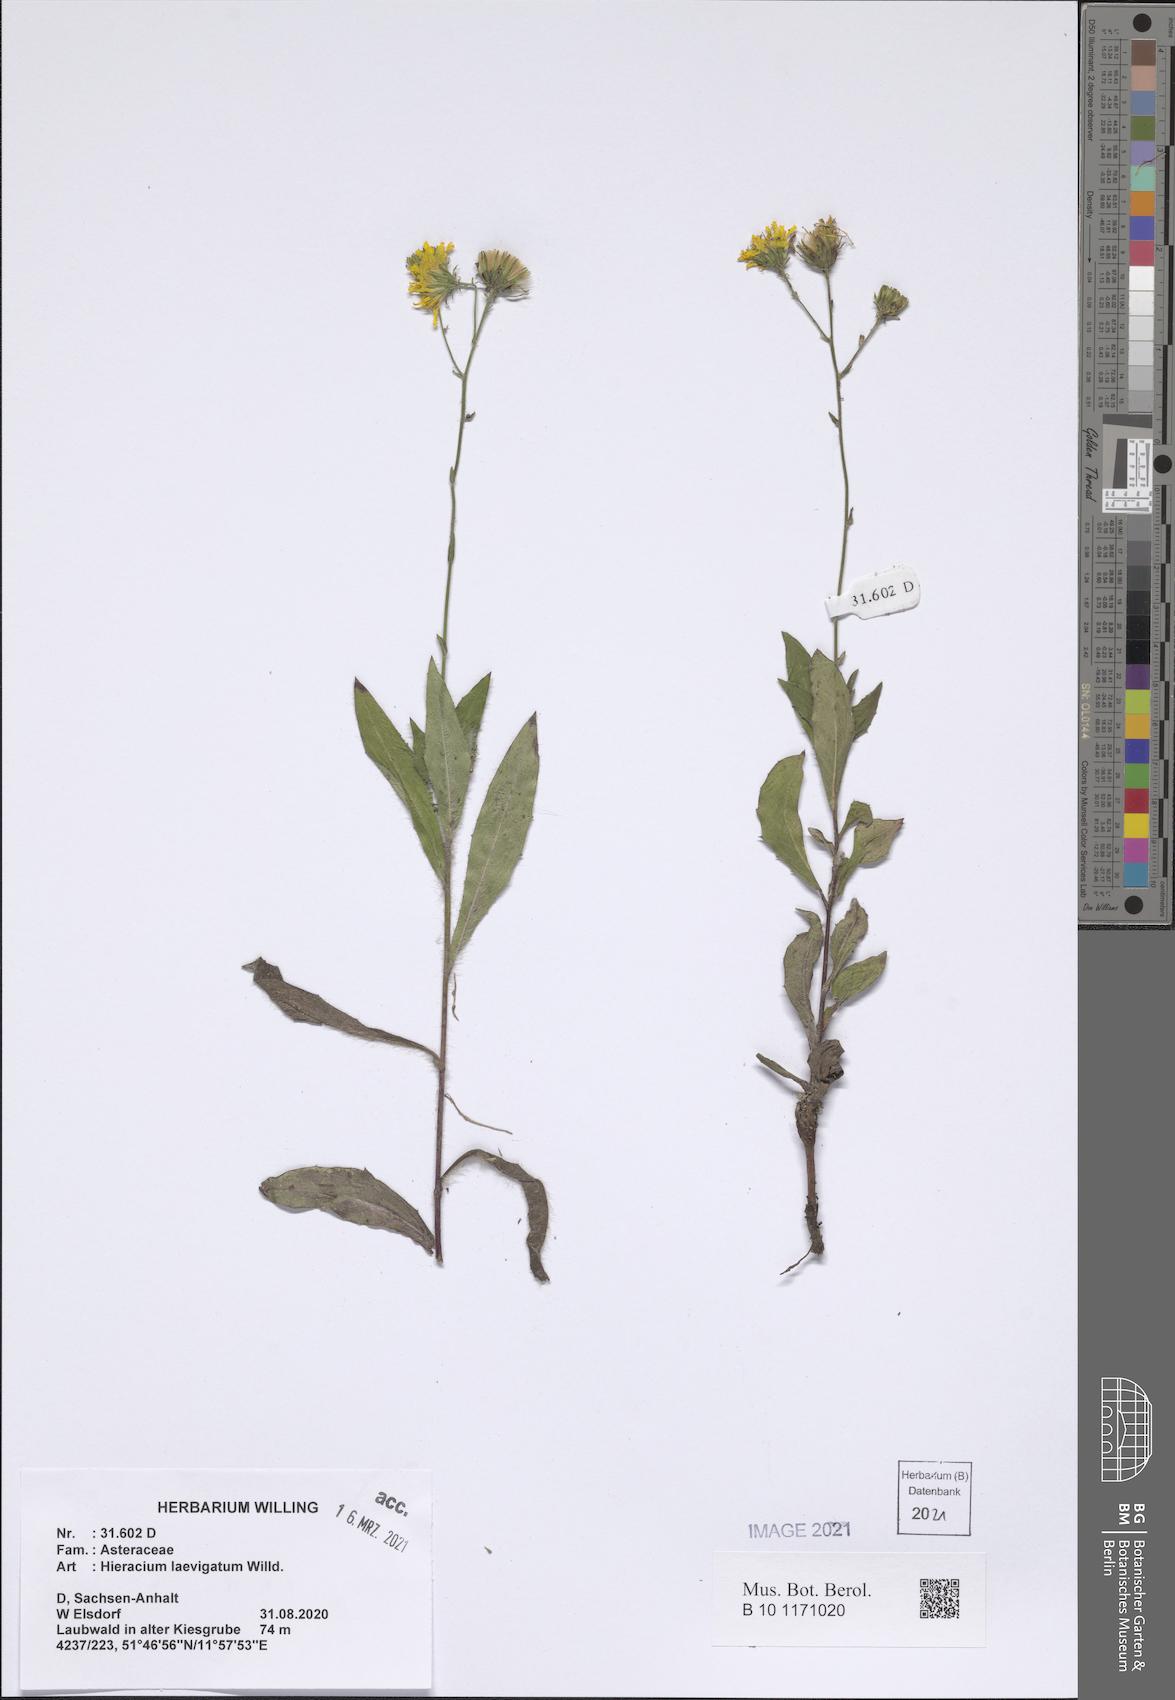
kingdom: Plantae
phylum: Tracheophyta
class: Magnoliopsida
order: Asterales
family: Asteraceae
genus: Hieracium
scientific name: Hieracium laevigatum
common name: Smooth hawkweed
